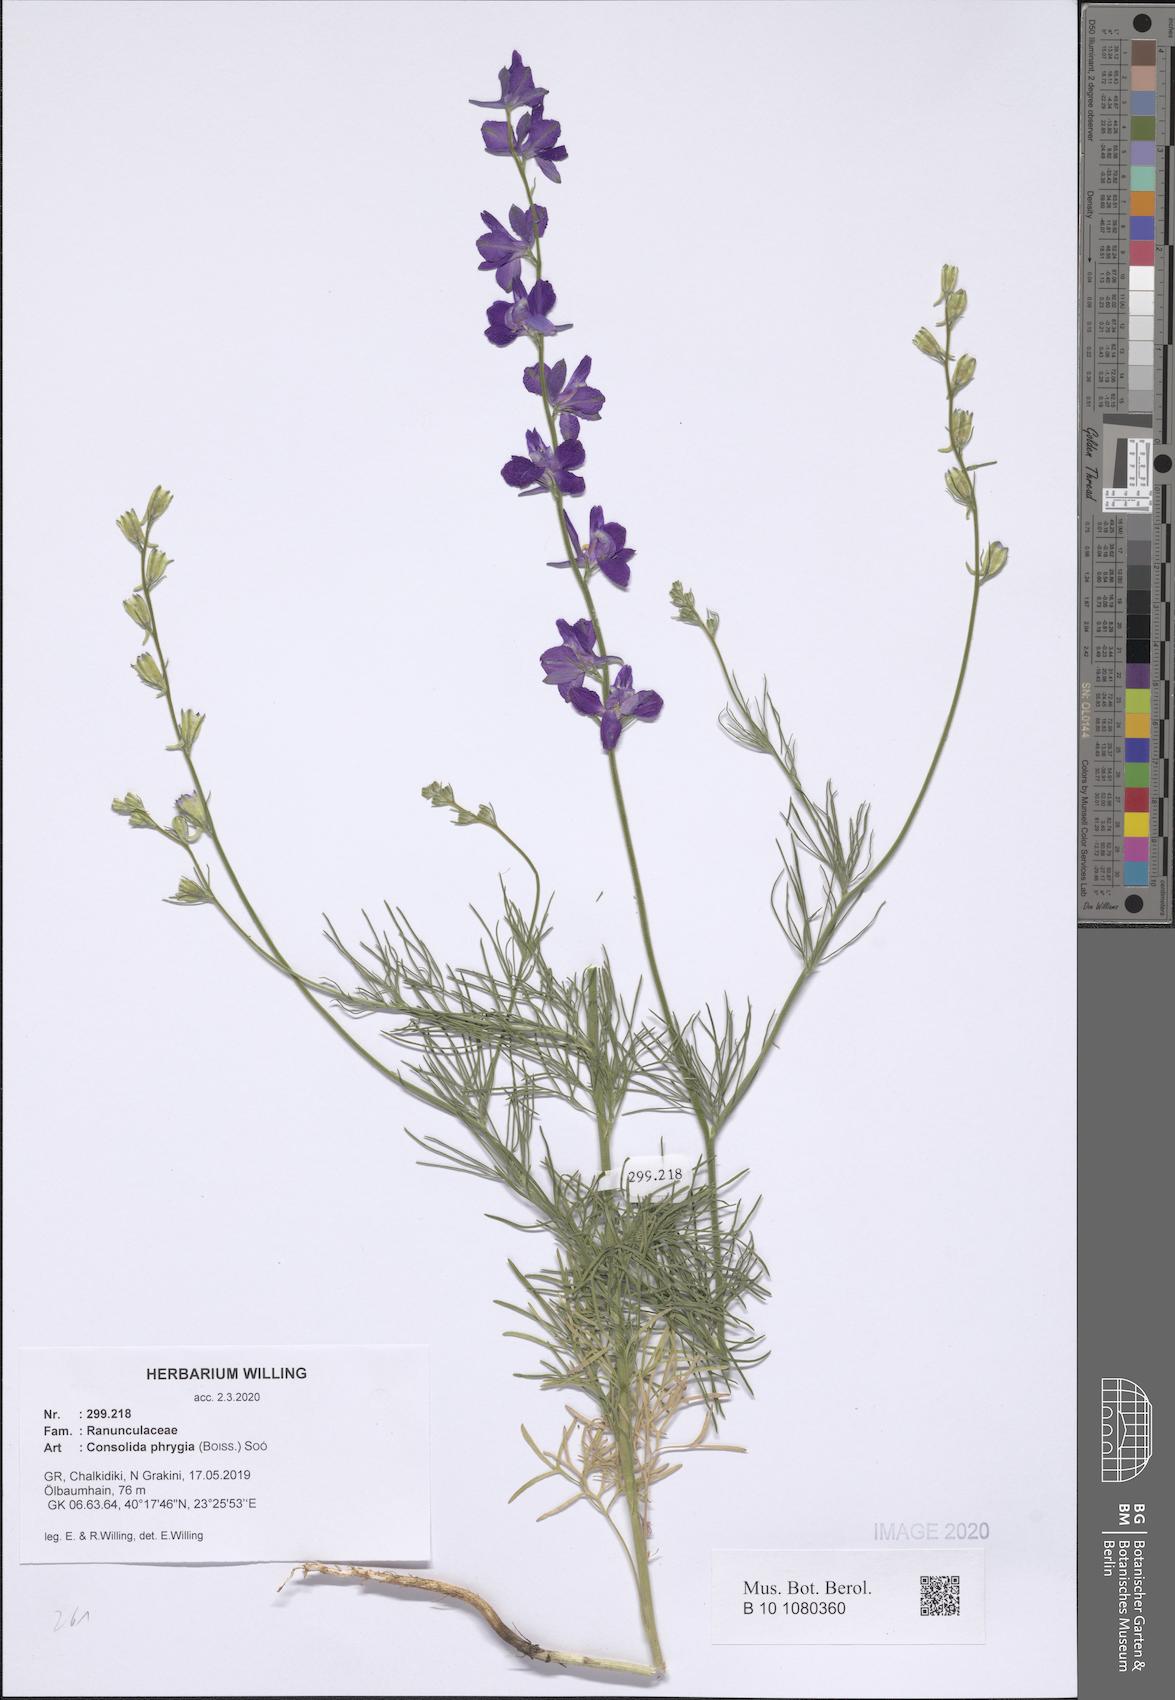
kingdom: Plantae
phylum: Tracheophyta
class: Magnoliopsida
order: Ranunculales
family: Ranunculaceae
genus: Delphinium
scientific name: Delphinium phrygium
